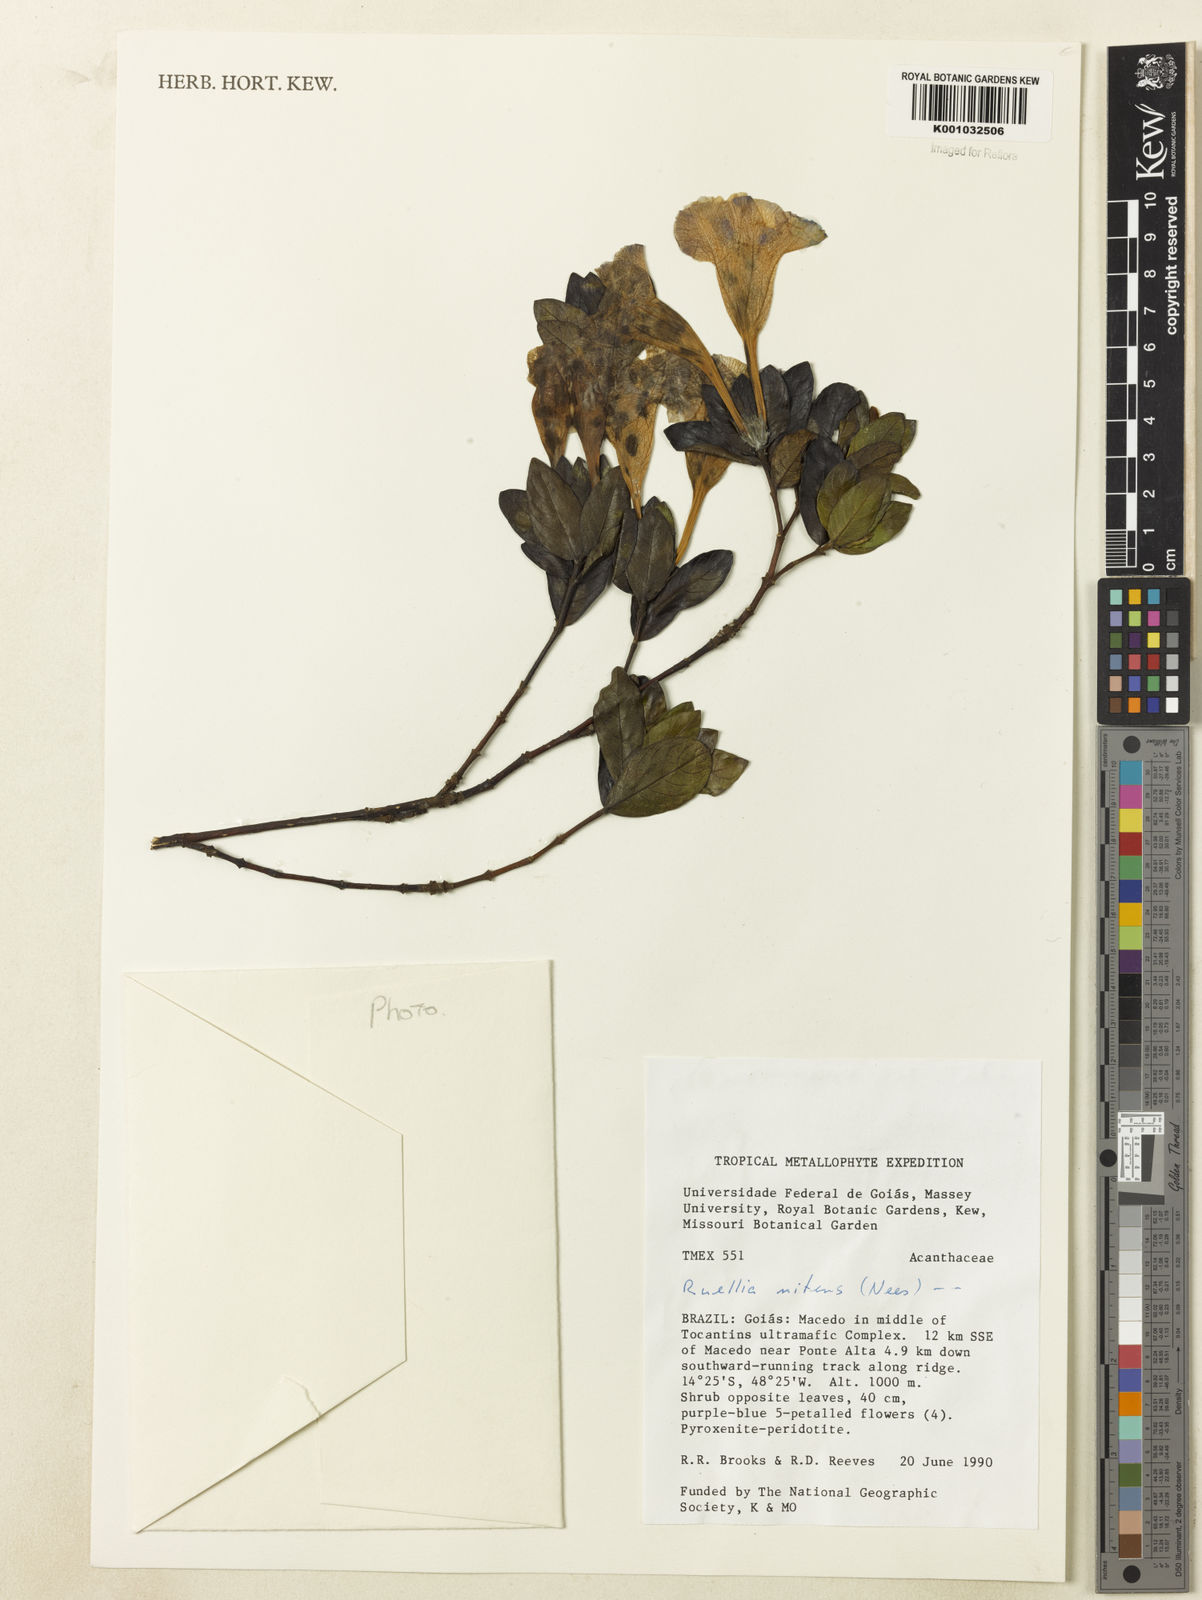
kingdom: Plantae
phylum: Tracheophyta
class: Magnoliopsida
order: Lamiales
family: Acanthaceae
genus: Ruellia
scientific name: Ruellia nitens
